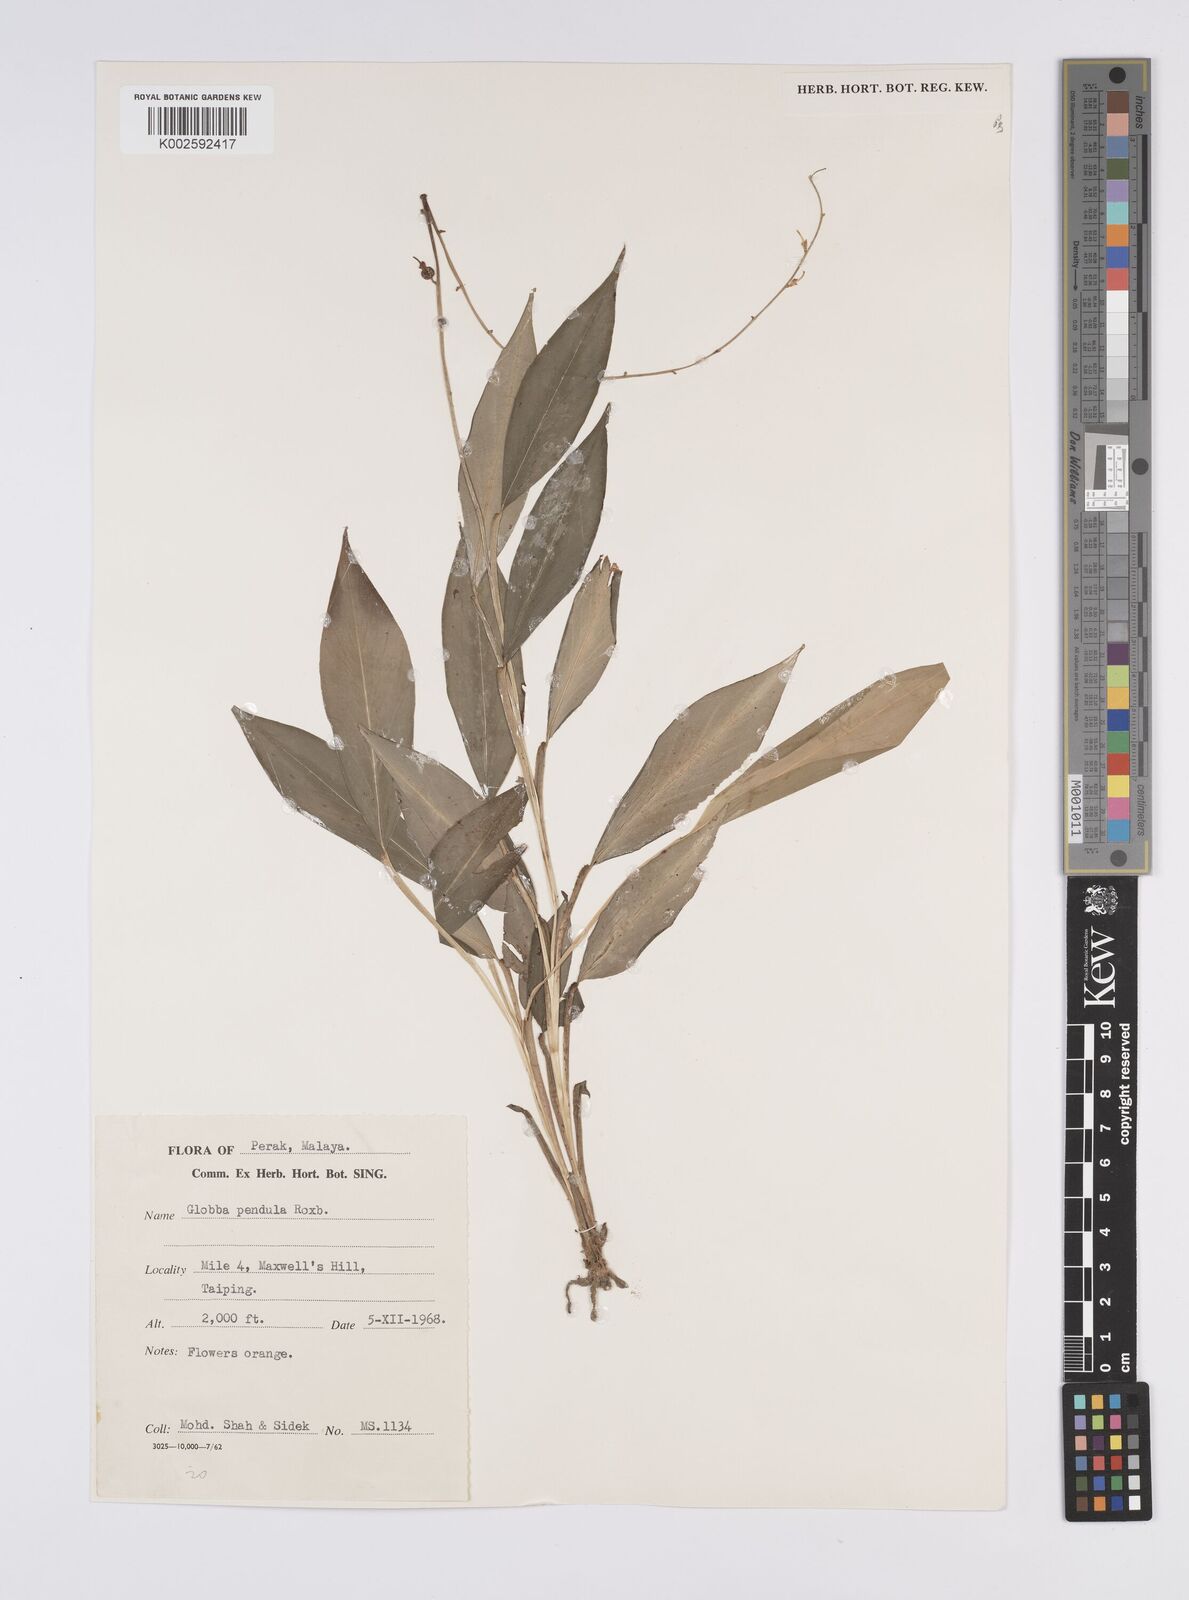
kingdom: Plantae
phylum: Tracheophyta
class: Liliopsida
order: Zingiberales
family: Zingiberaceae
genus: Globba
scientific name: Globba pendula
